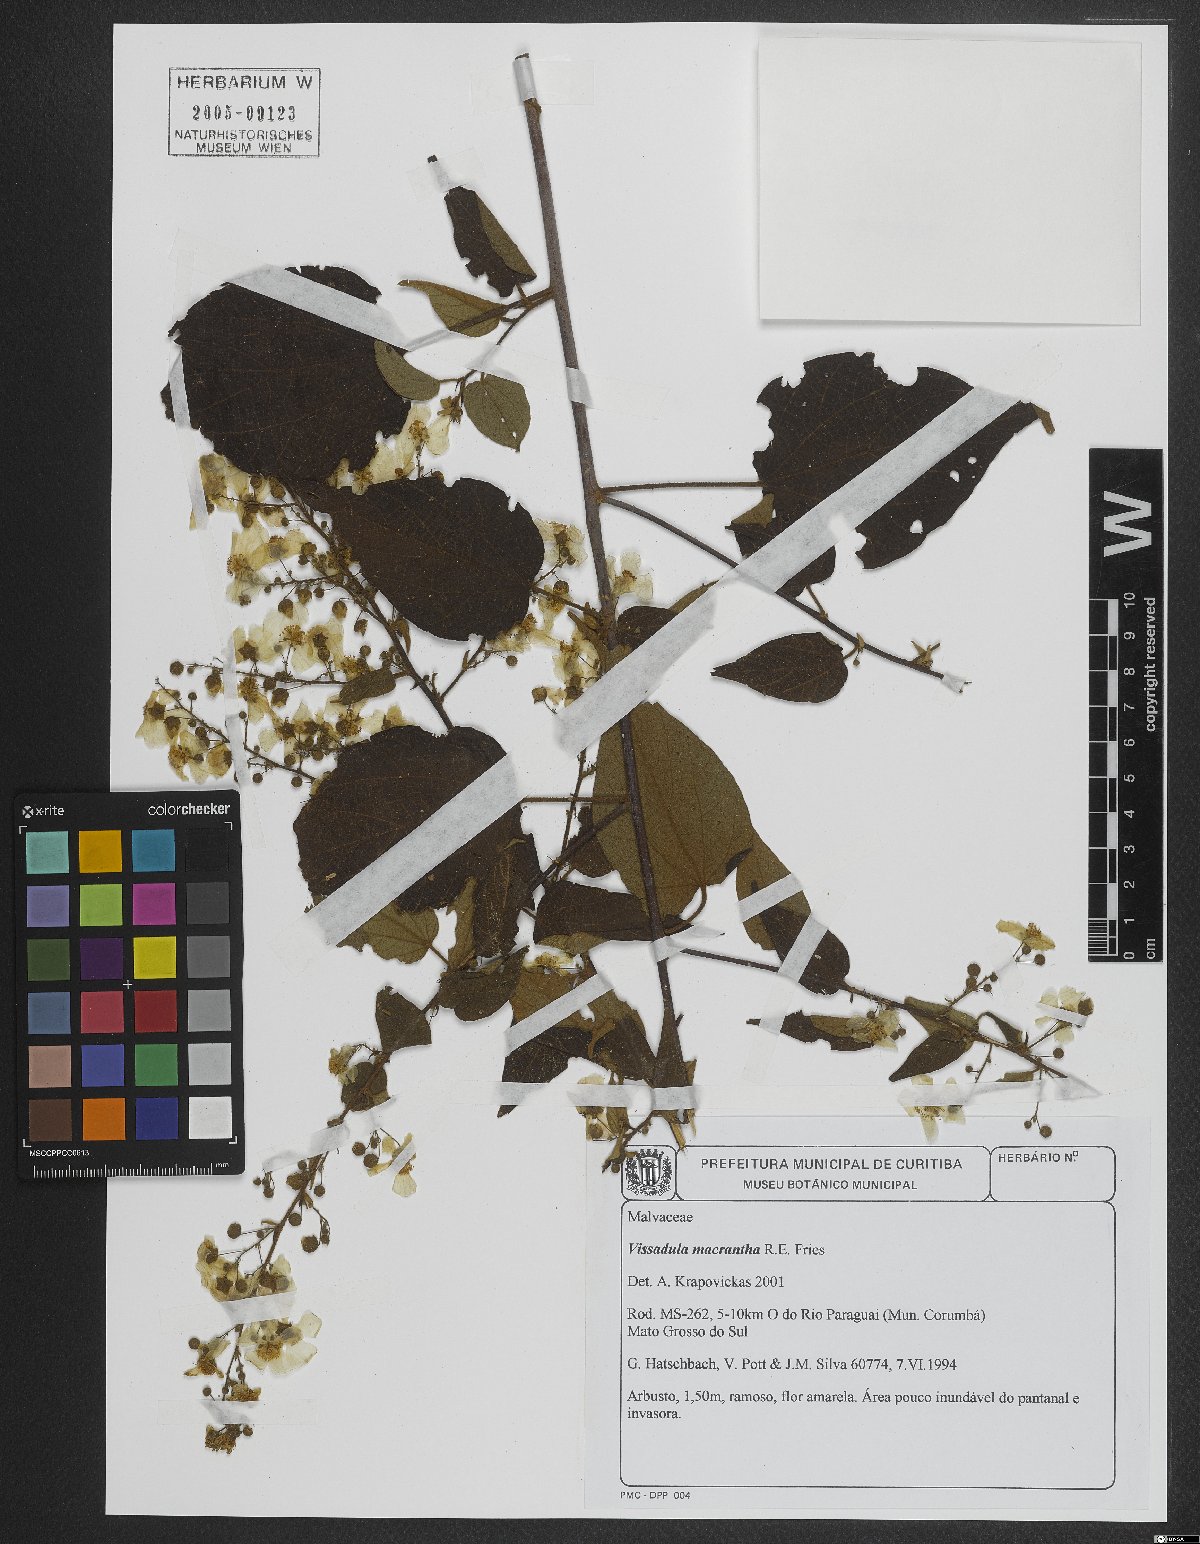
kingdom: Plantae
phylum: Tracheophyta
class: Magnoliopsida
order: Malvales
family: Malvaceae
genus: Wissadula
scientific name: Wissadula grandifolia
